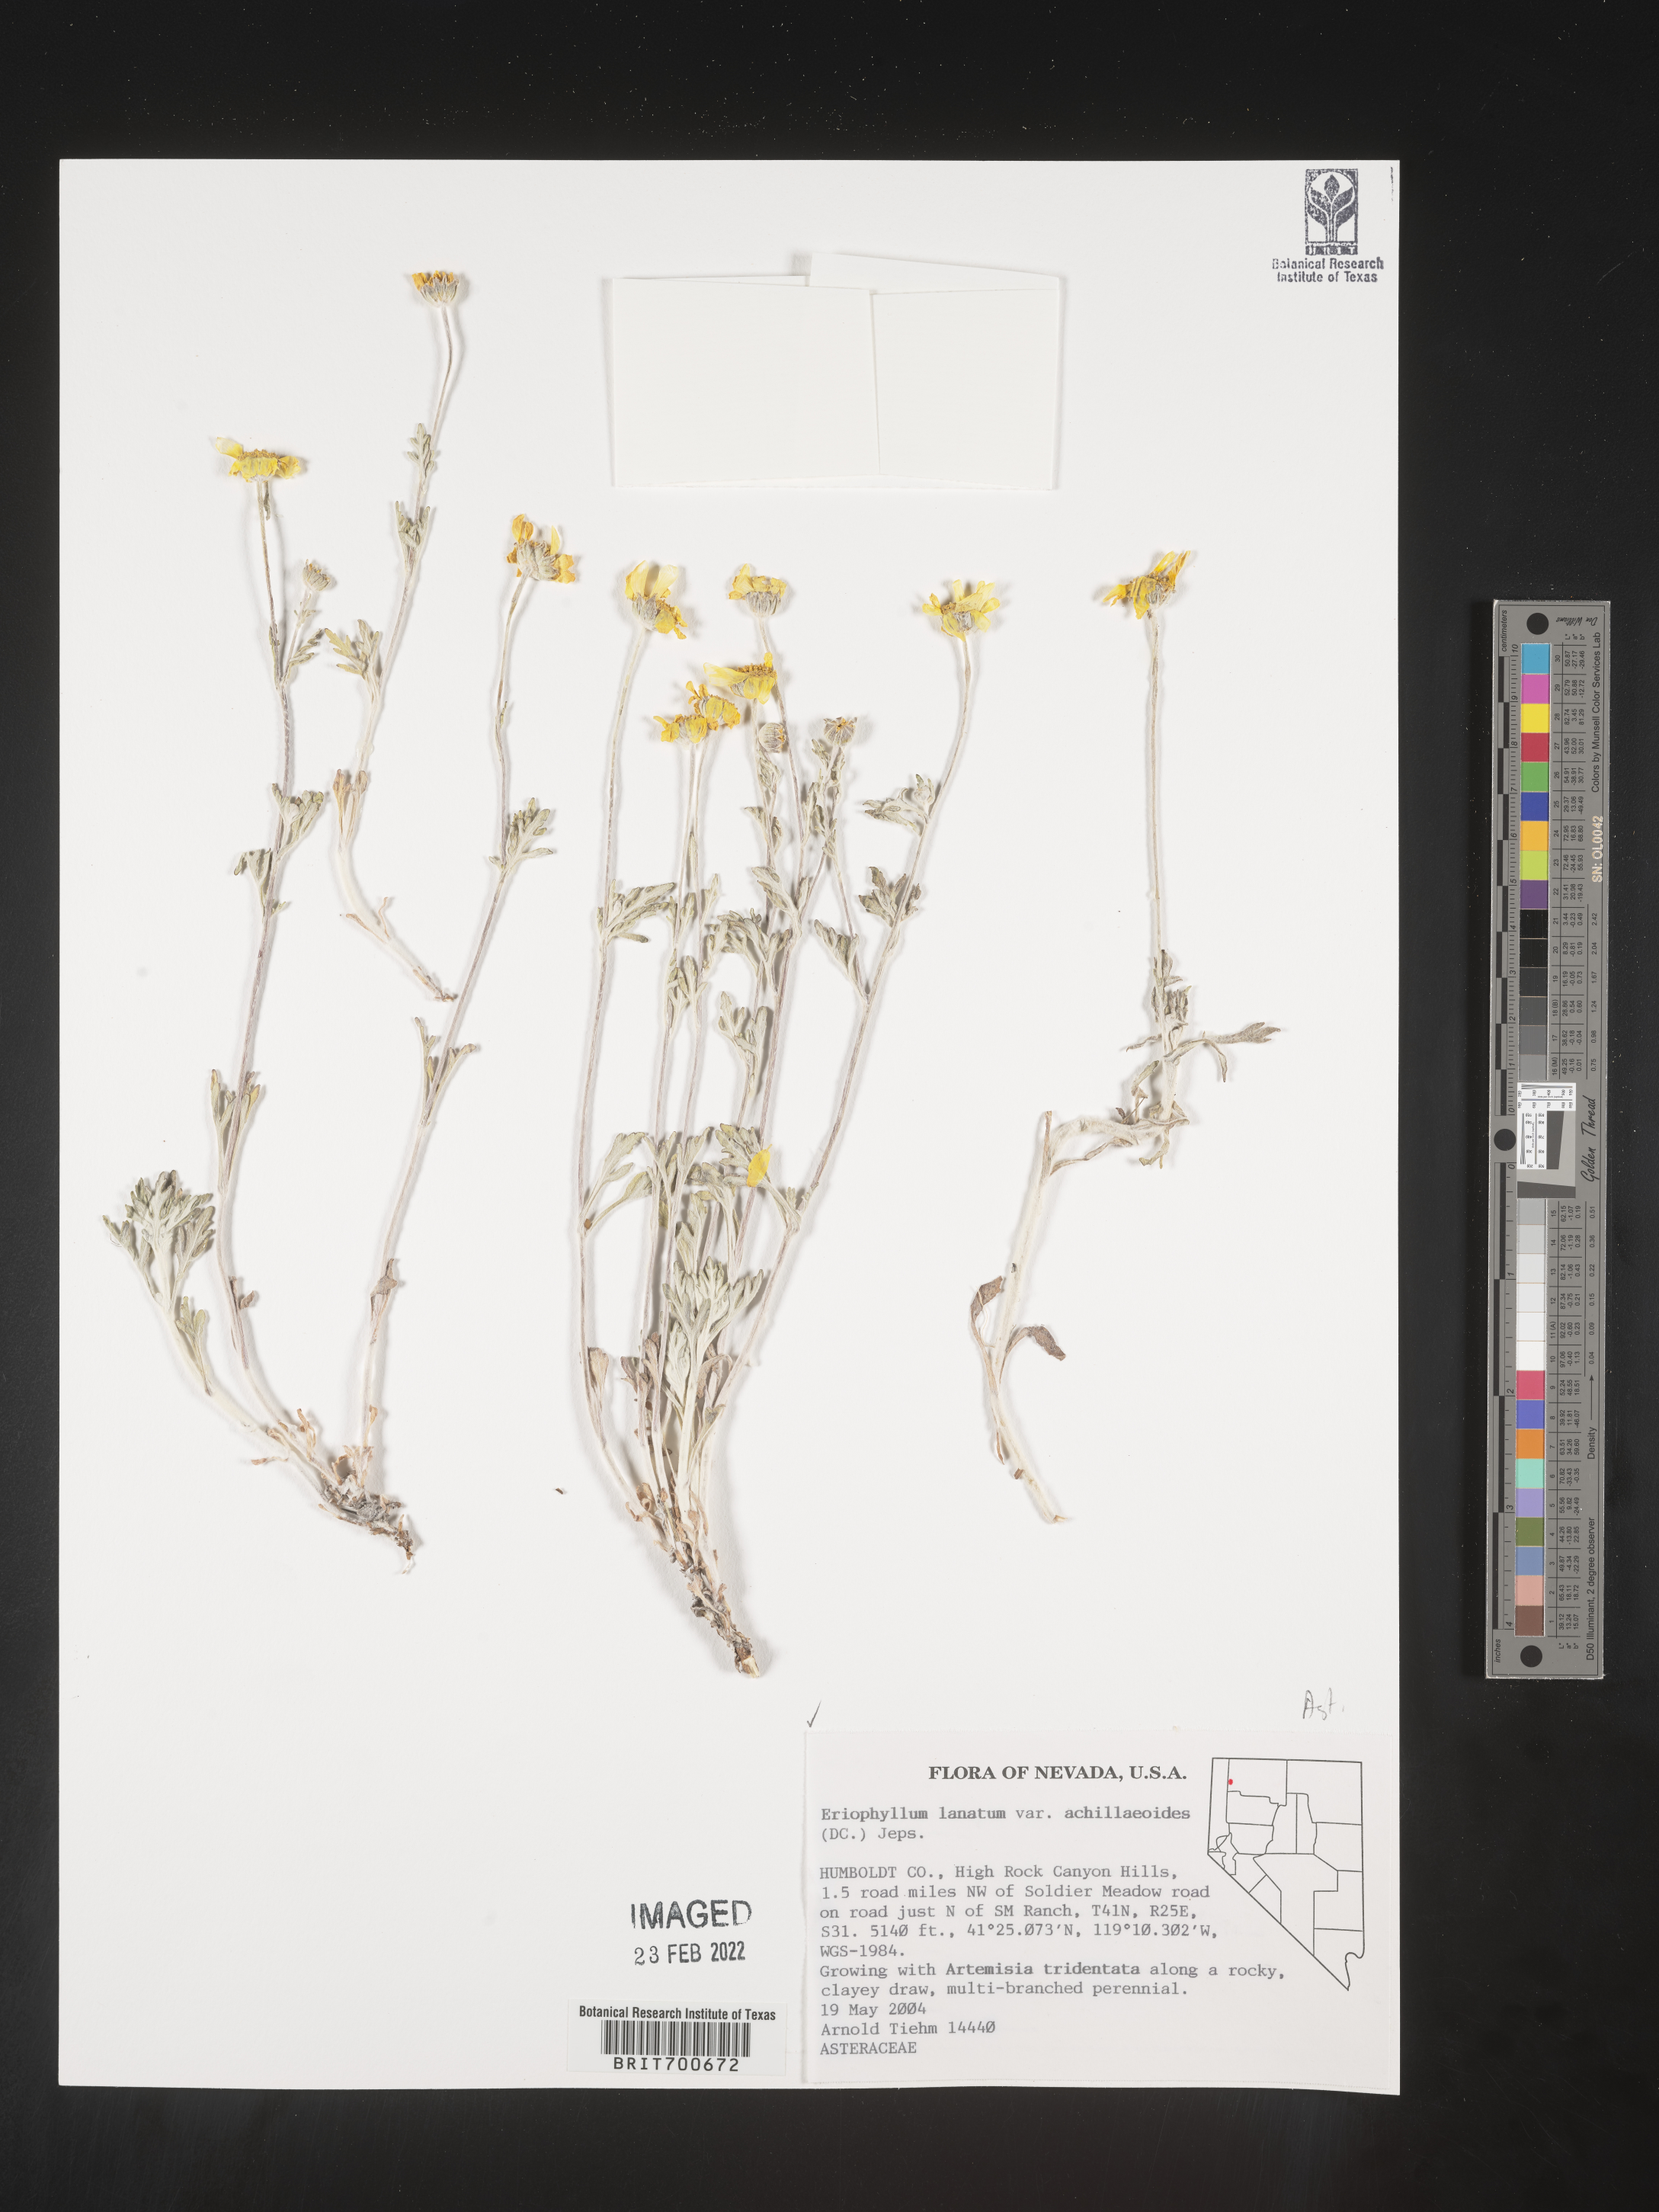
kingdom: Plantae
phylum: Tracheophyta
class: Magnoliopsida
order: Asterales
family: Asteraceae
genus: Eriophyllum
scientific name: Eriophyllum lanatum
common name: Common woolly-sunflower
